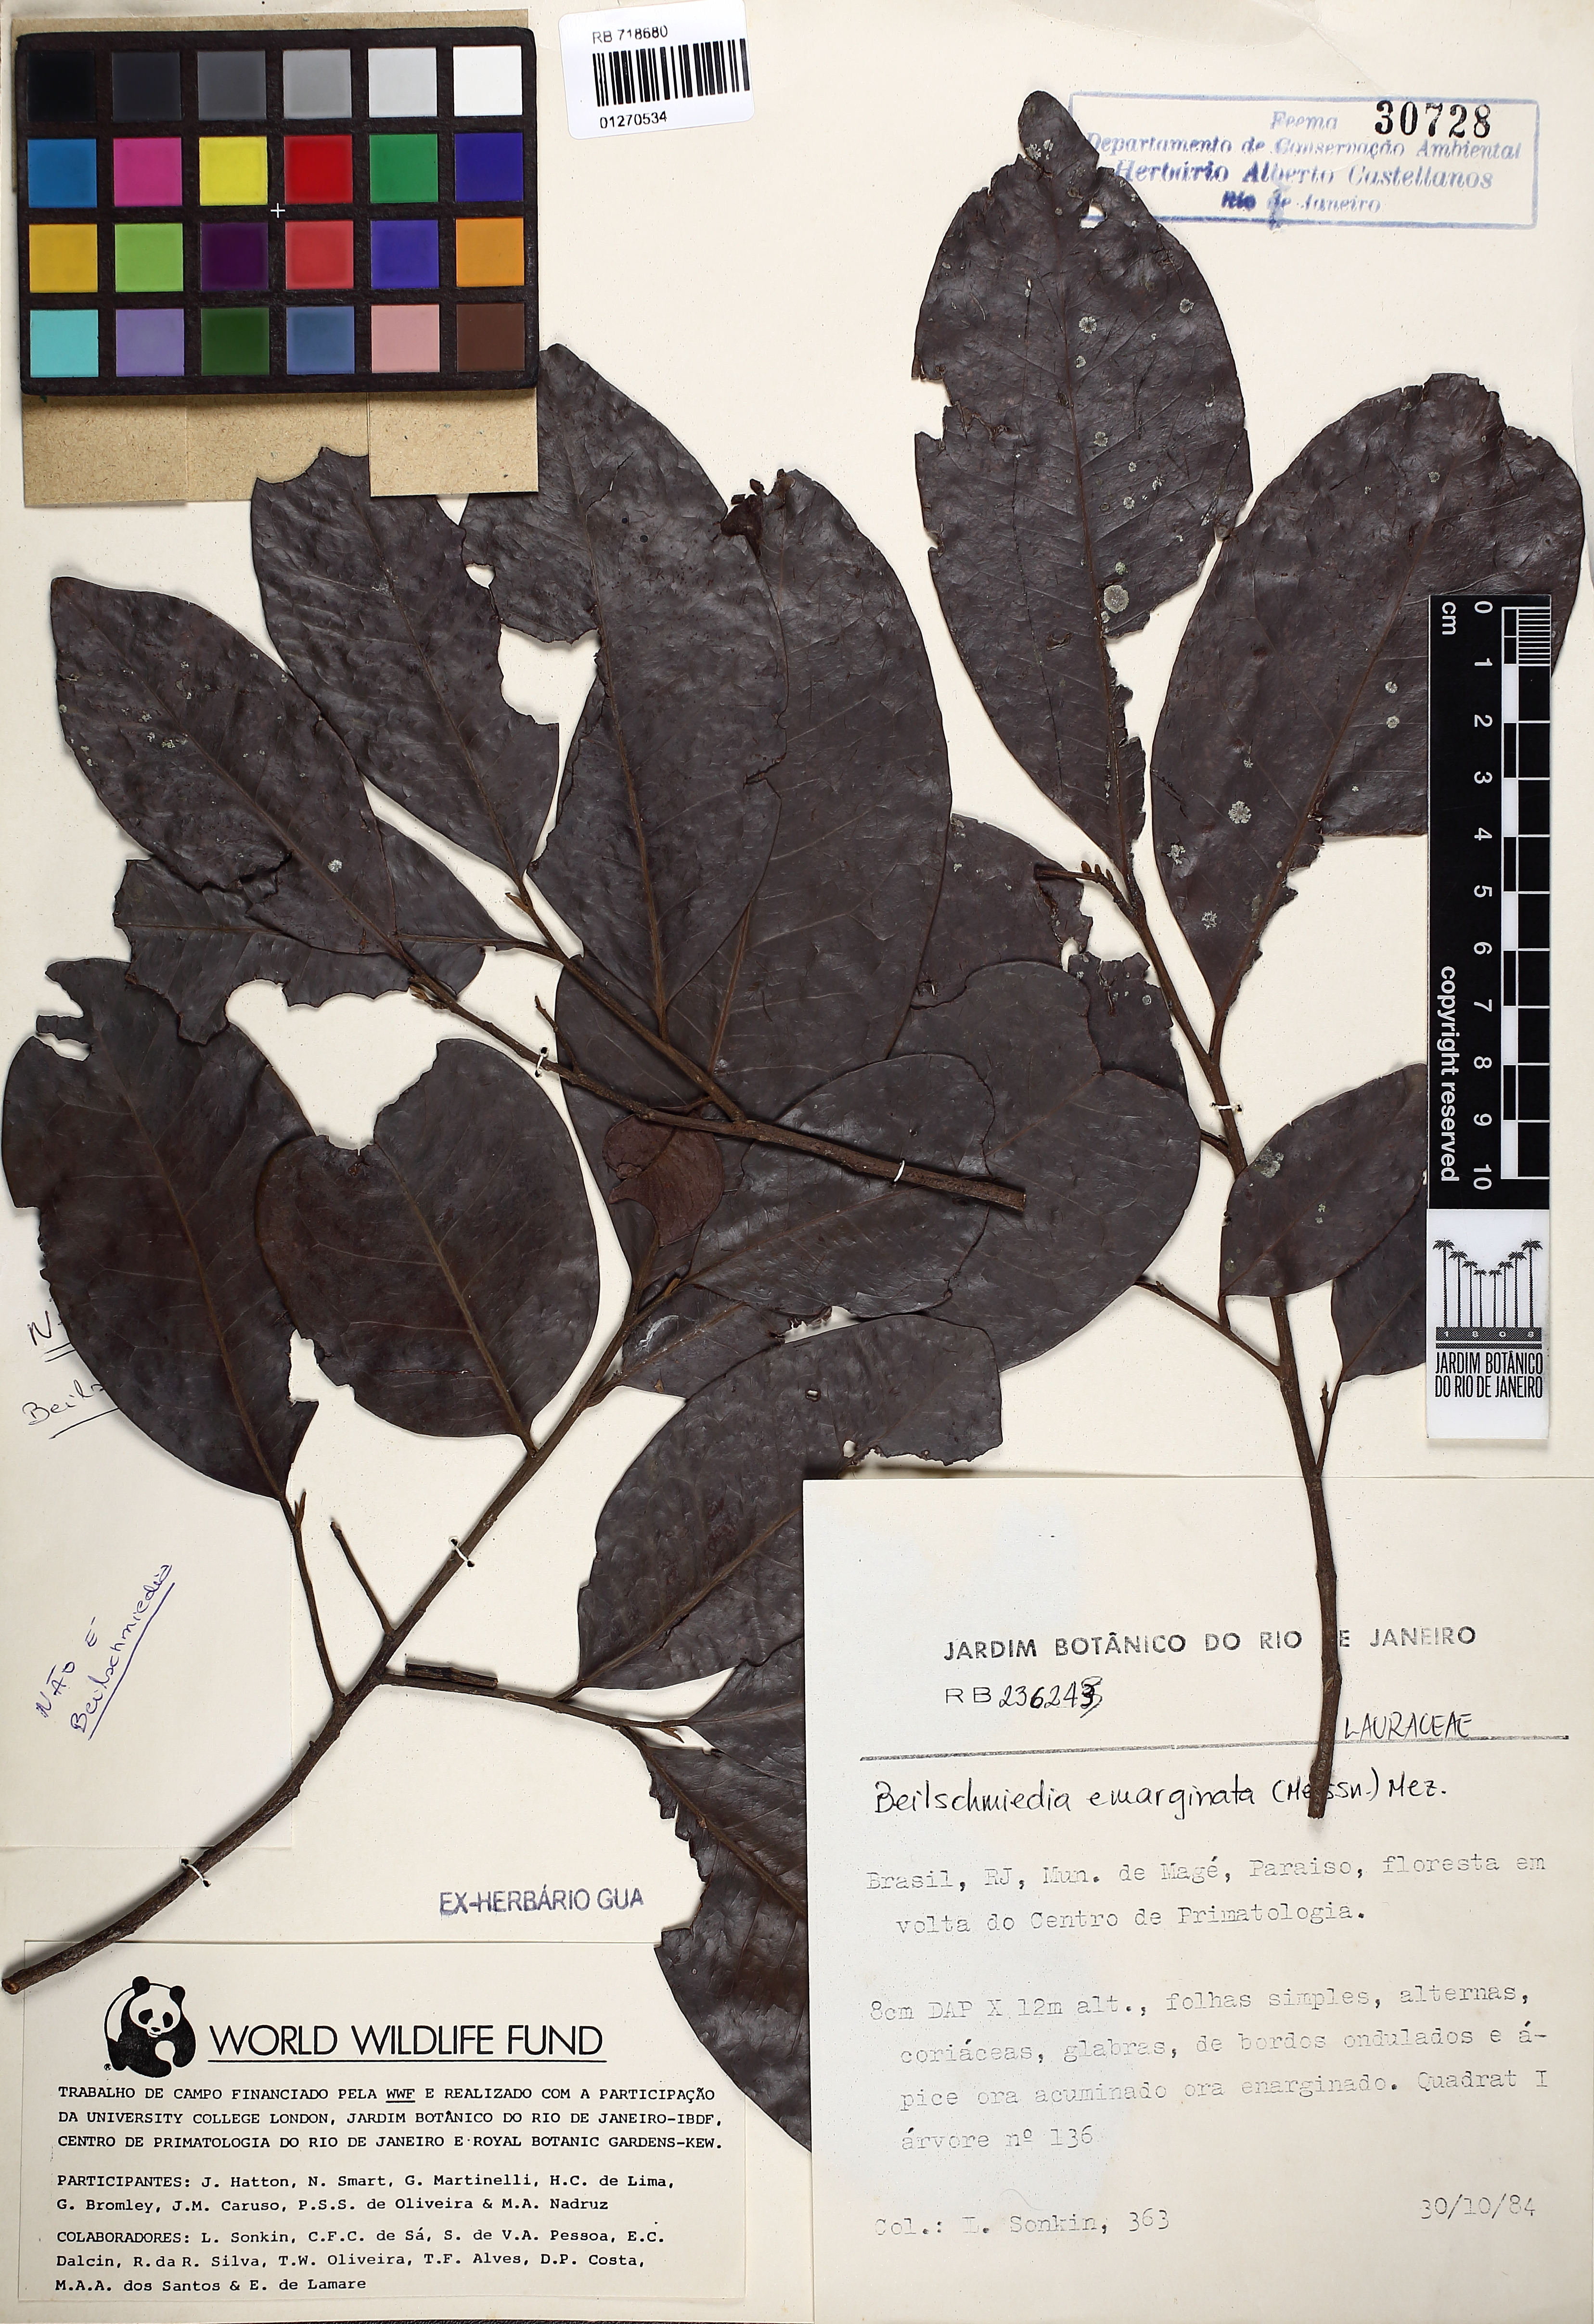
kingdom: Plantae
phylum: Tracheophyta
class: Magnoliopsida
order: Laurales
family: Lauraceae
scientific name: Lauraceae
